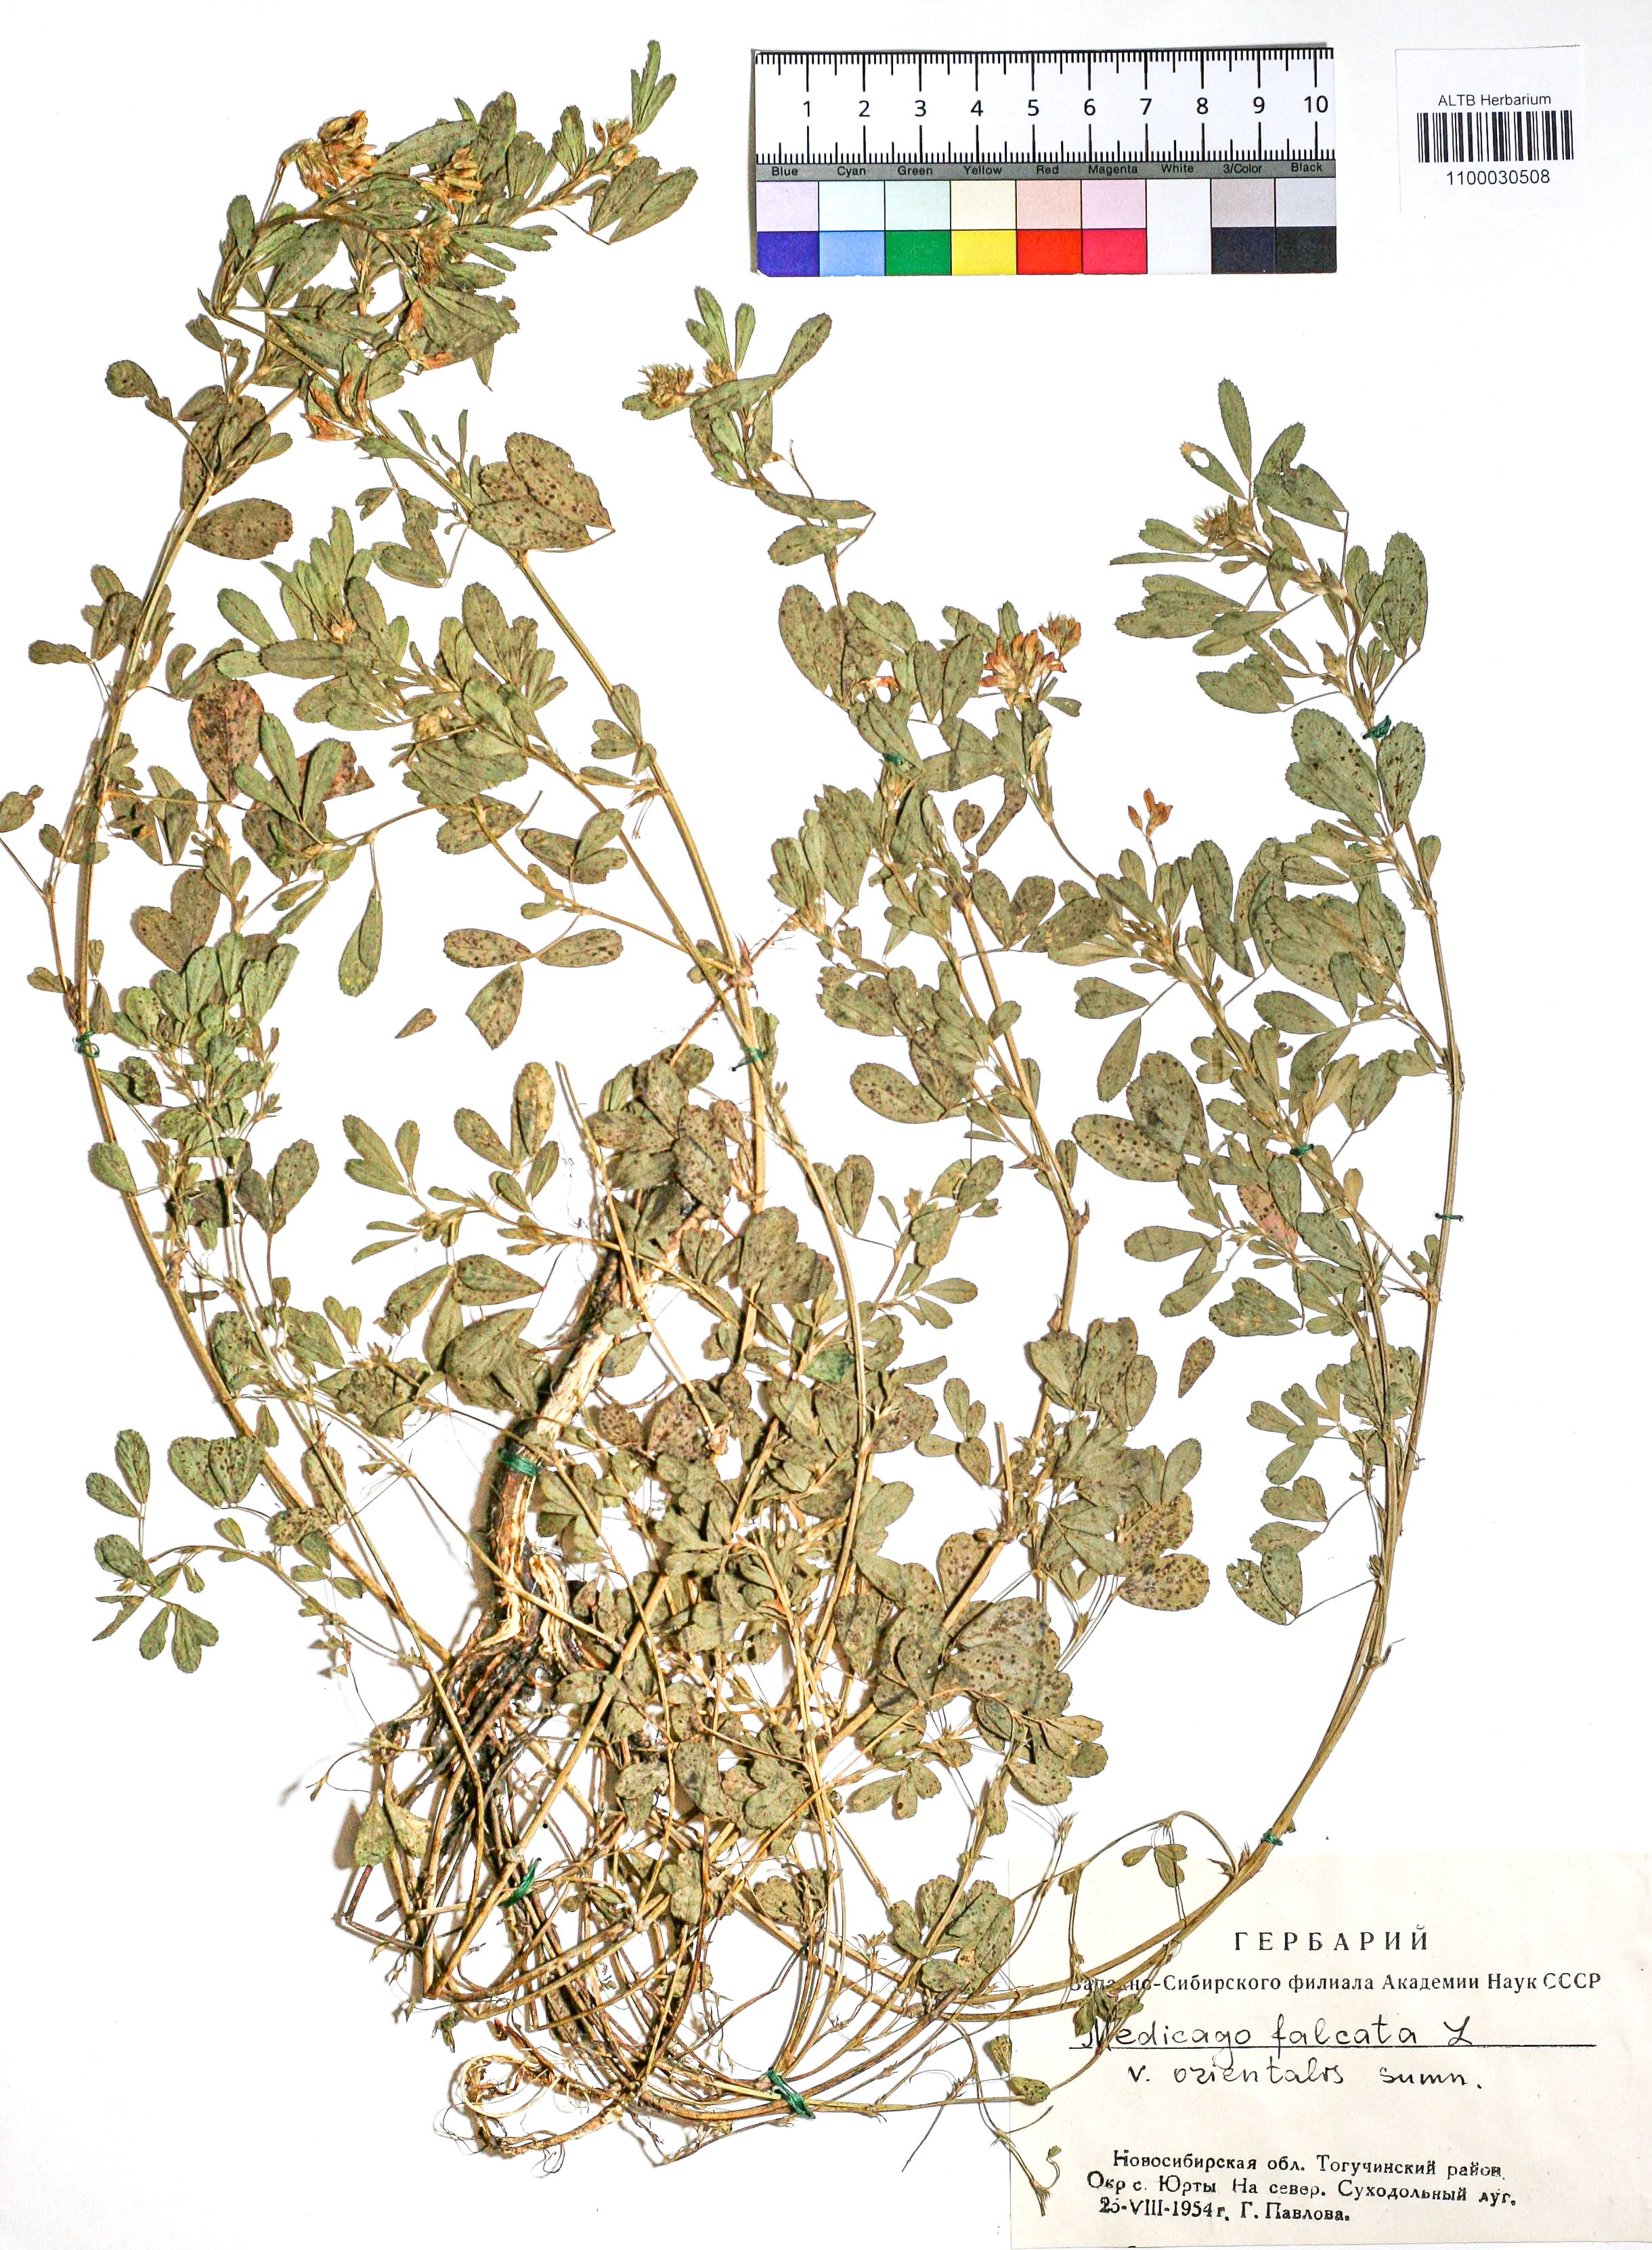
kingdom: Plantae
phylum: Tracheophyta
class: Magnoliopsida
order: Fabales
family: Fabaceae
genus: Medicago
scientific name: Medicago falcata
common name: Sickle medick
